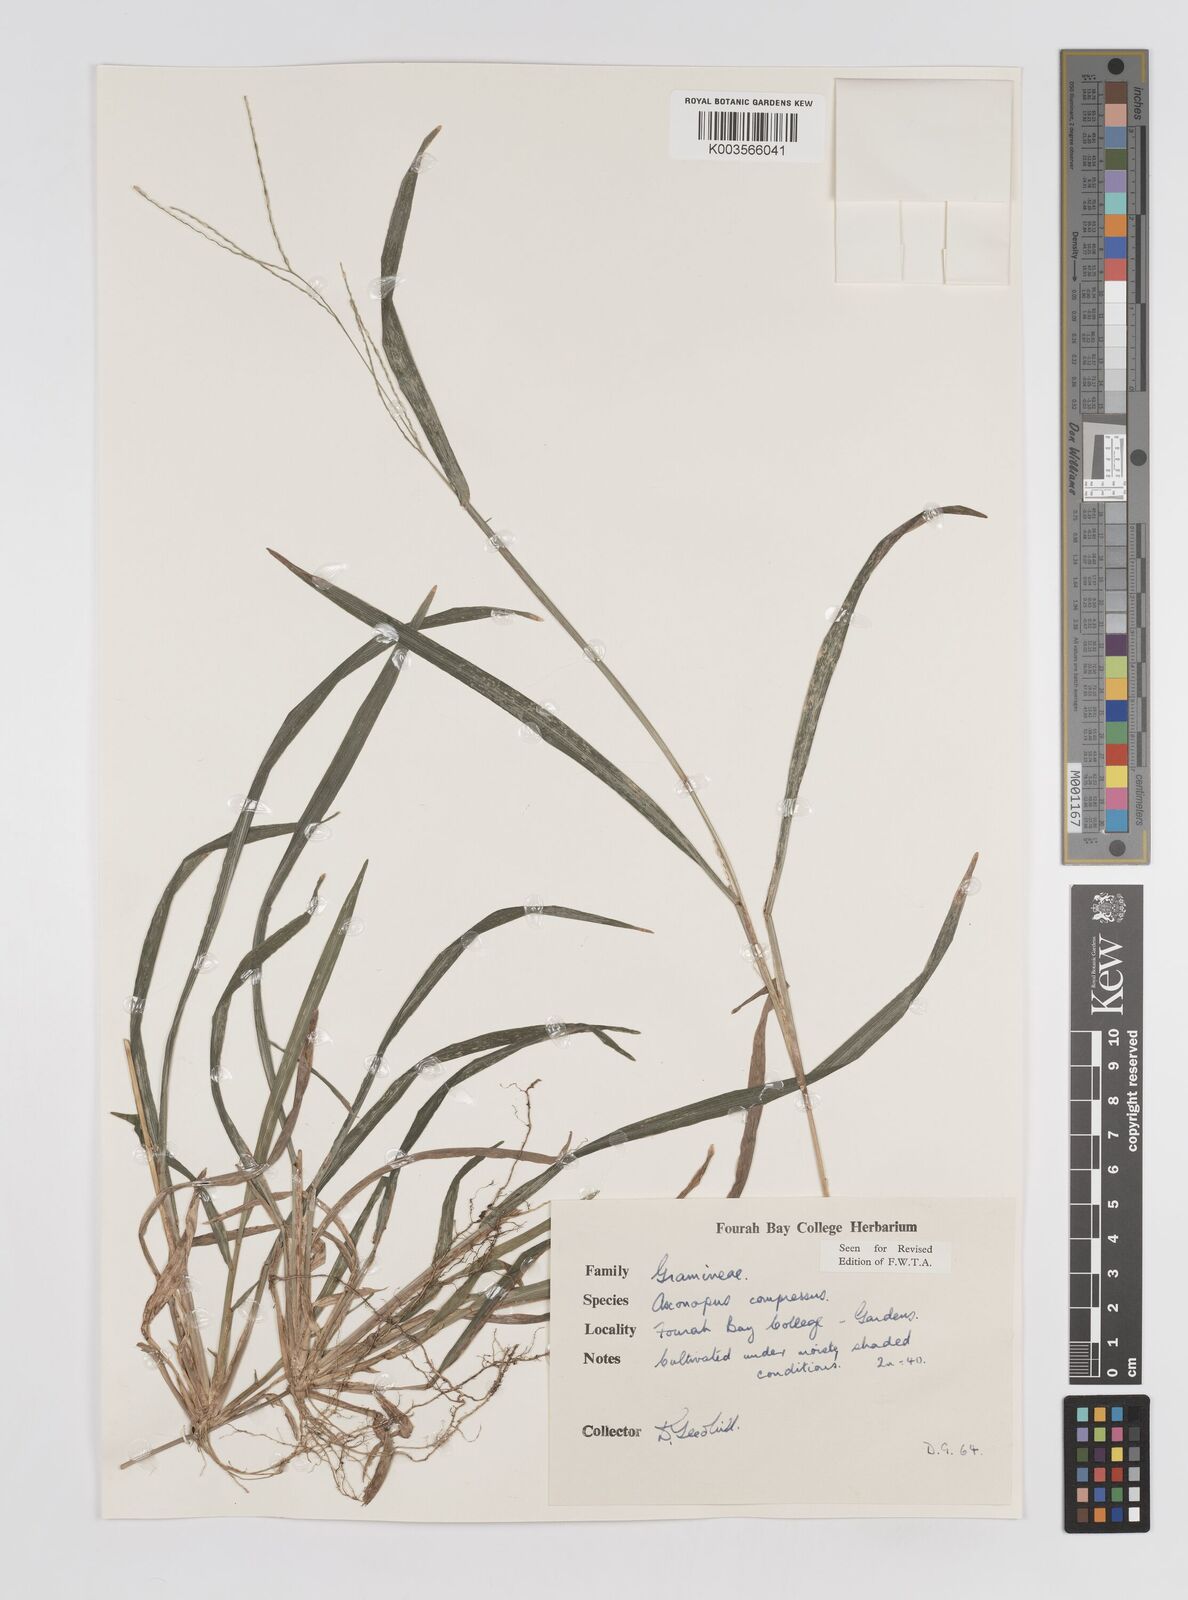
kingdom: Plantae
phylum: Tracheophyta
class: Liliopsida
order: Poales
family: Poaceae
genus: Axonopus
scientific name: Axonopus compressus
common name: American carpet grass
